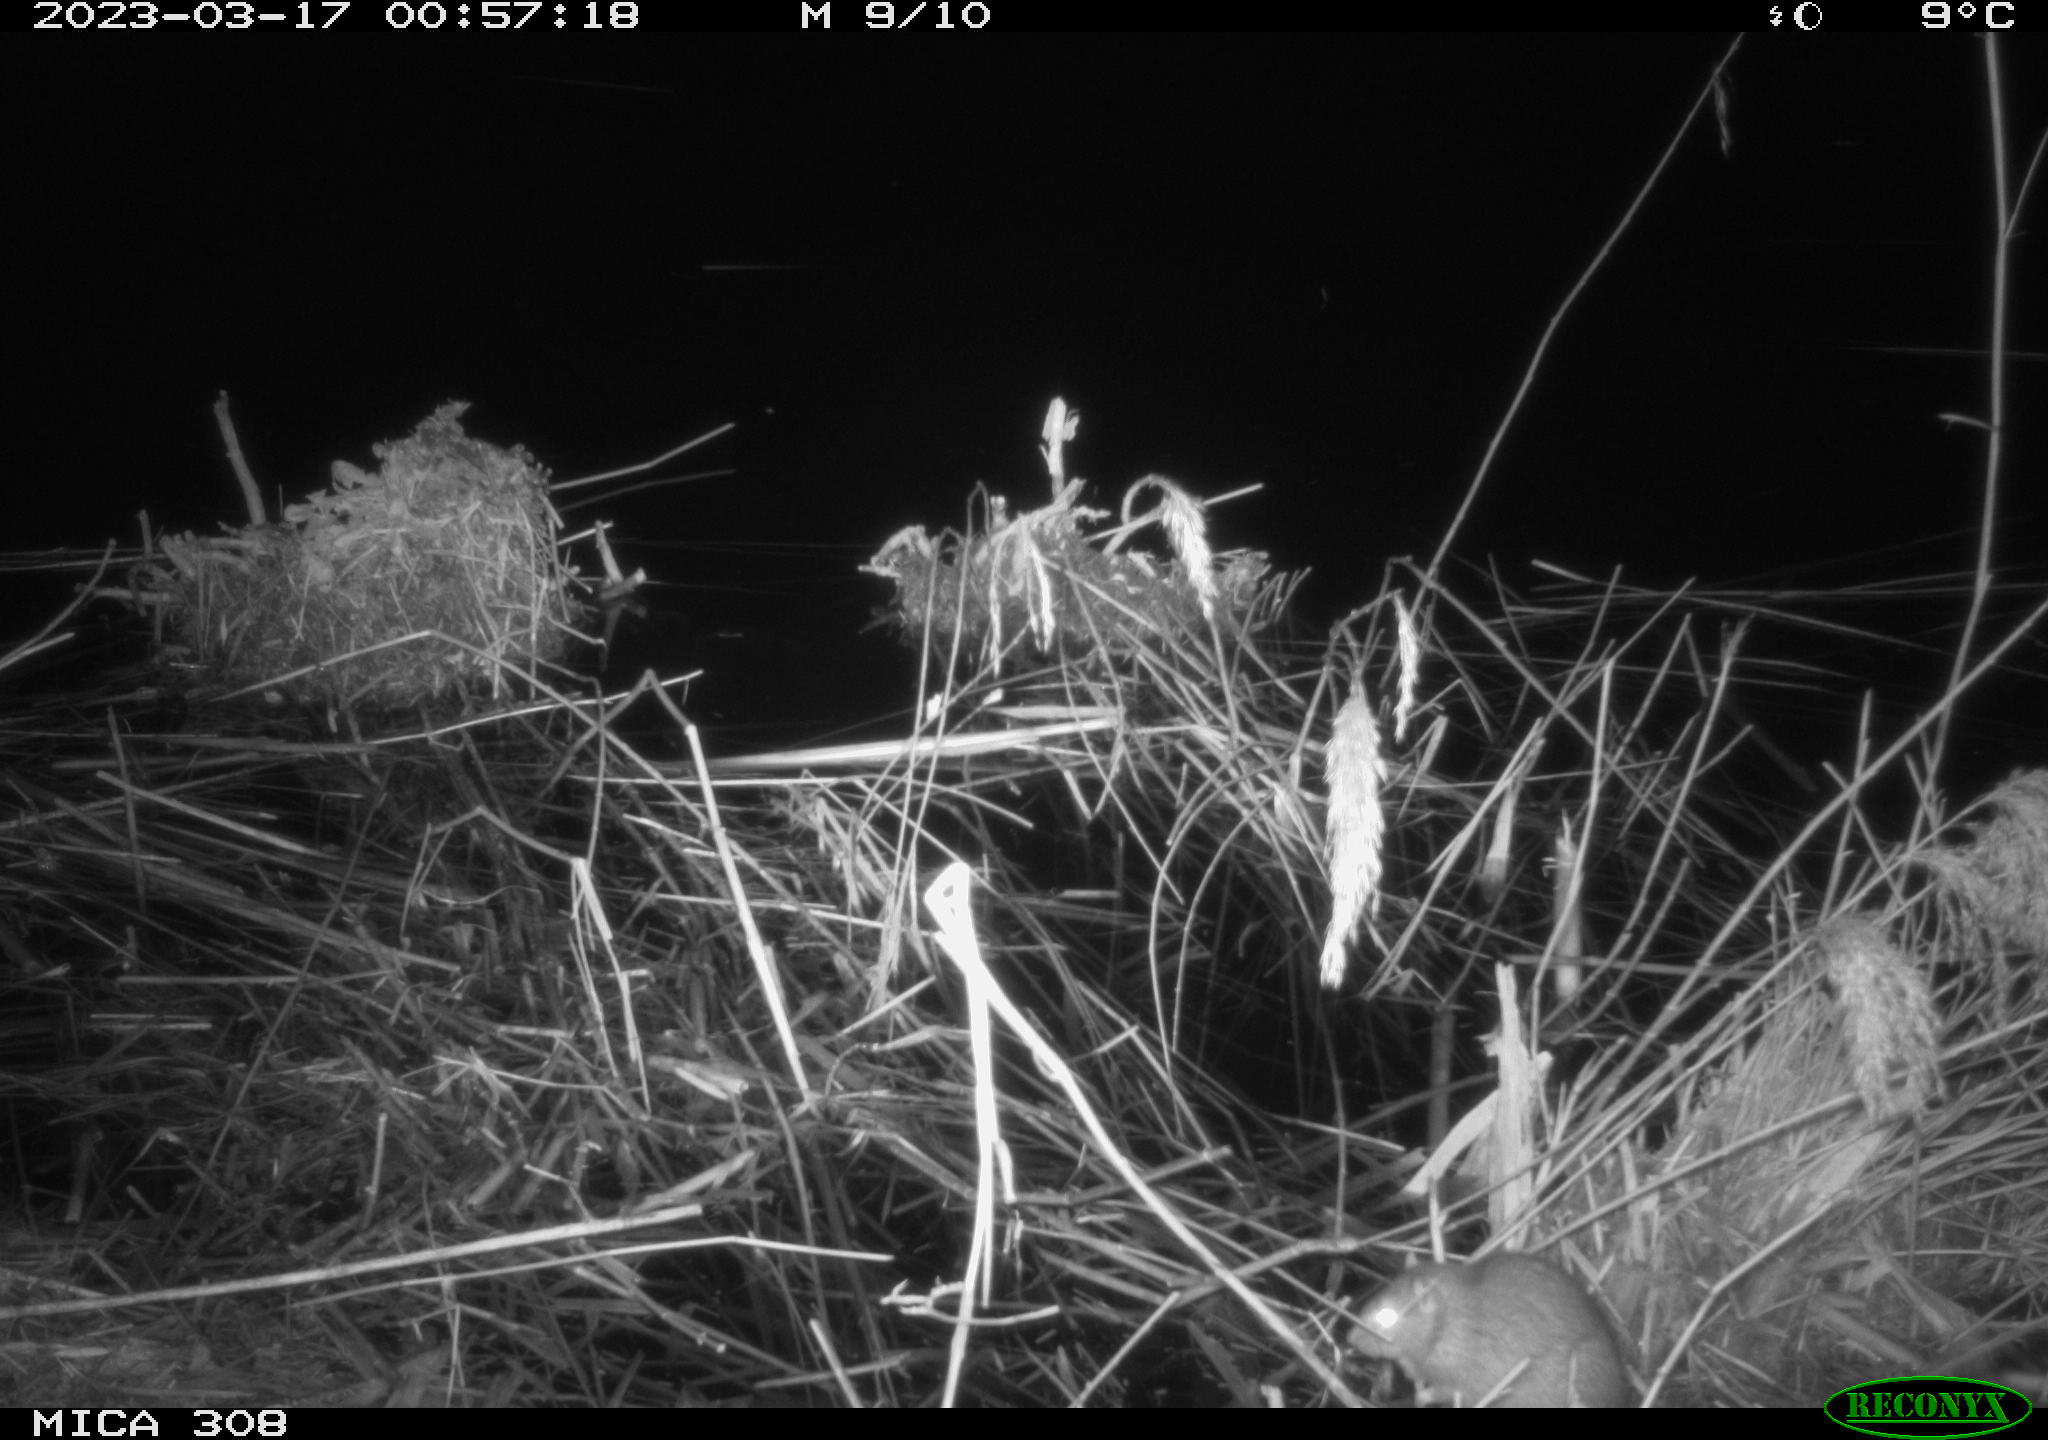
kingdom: Animalia
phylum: Chordata
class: Mammalia
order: Rodentia
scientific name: Rodentia
